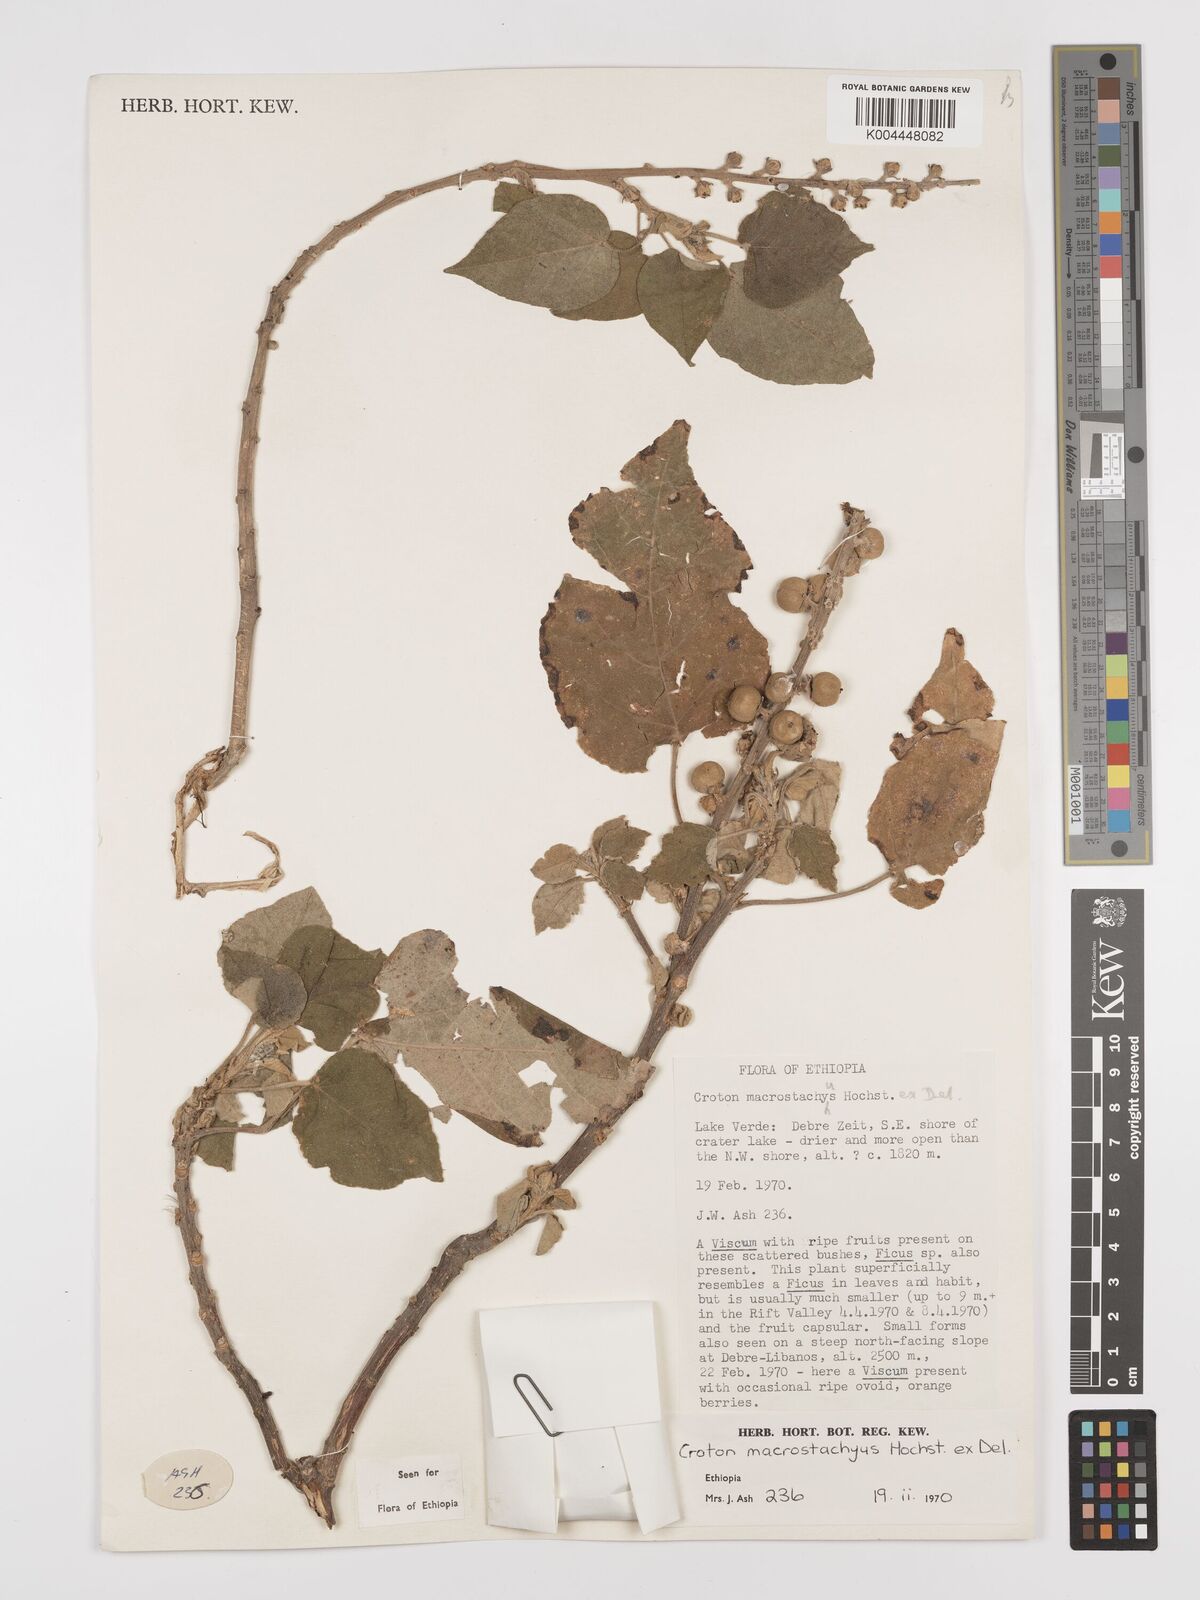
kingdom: Plantae
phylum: Tracheophyta
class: Magnoliopsida
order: Malpighiales
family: Euphorbiaceae
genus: Croton
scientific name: Croton macrostachyus
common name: Mutundu
